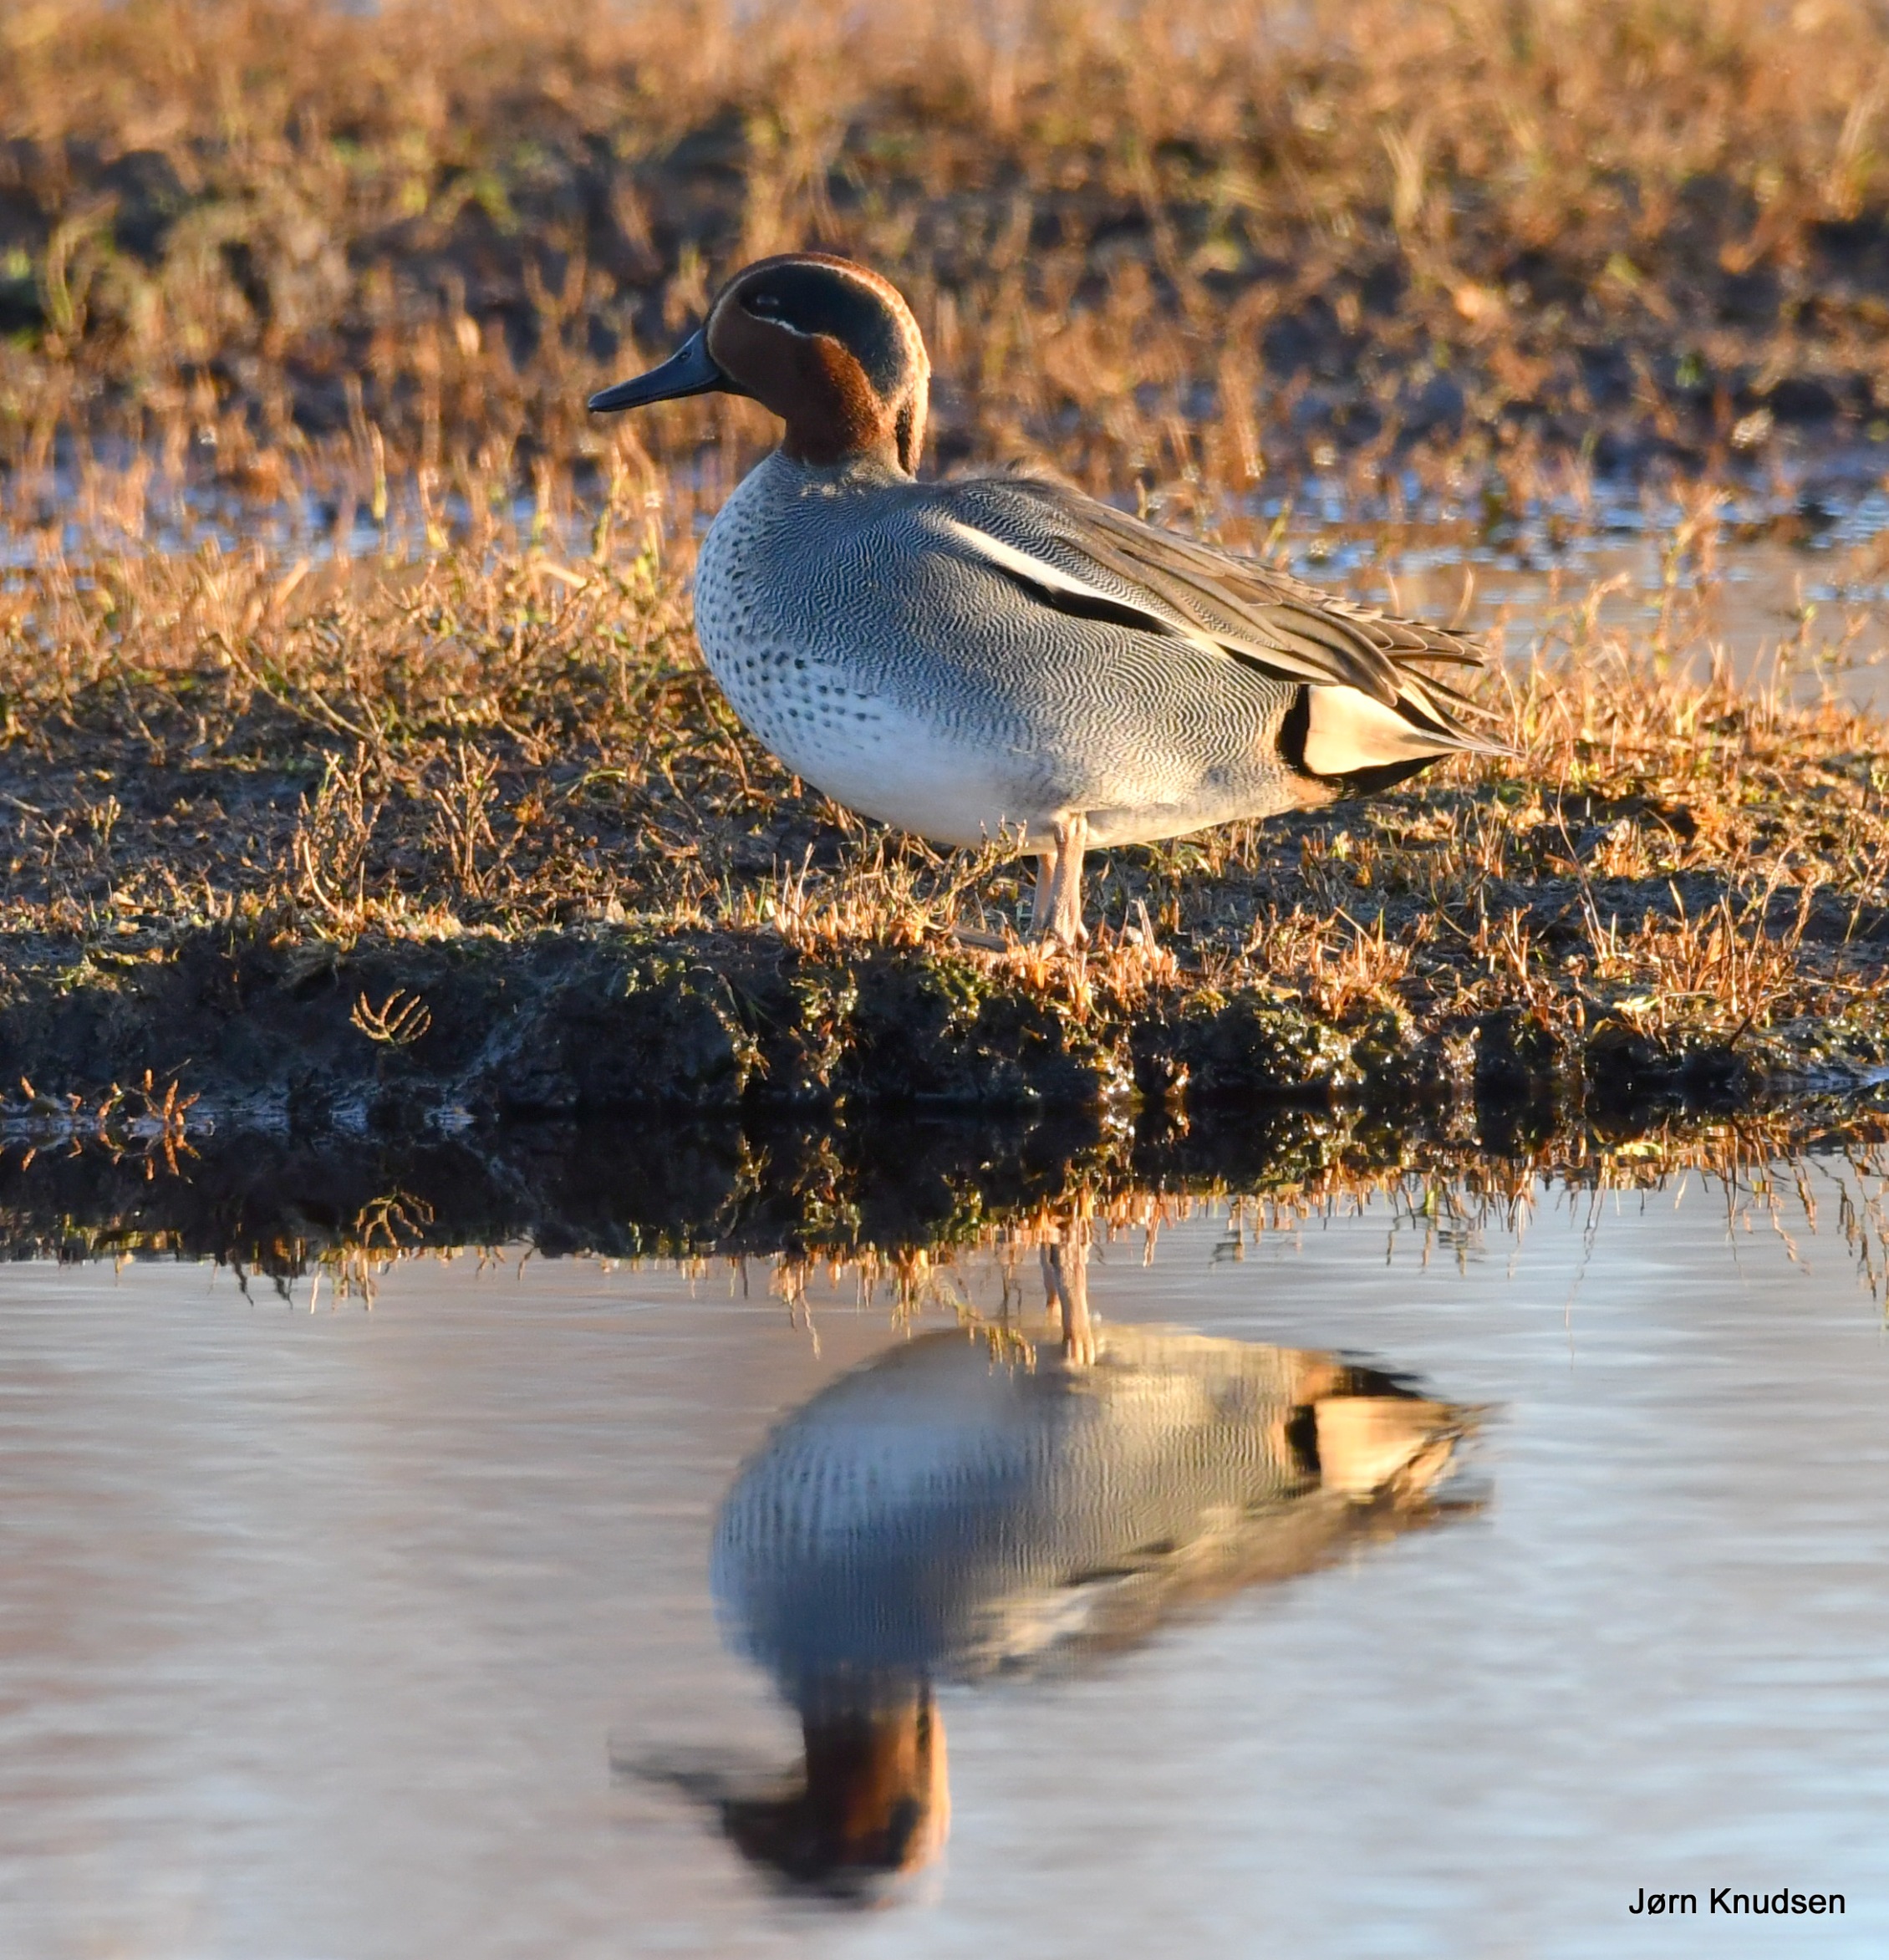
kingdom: Animalia
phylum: Chordata
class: Aves
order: Anseriformes
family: Anatidae
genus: Anas
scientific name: Anas crecca
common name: Krikand
